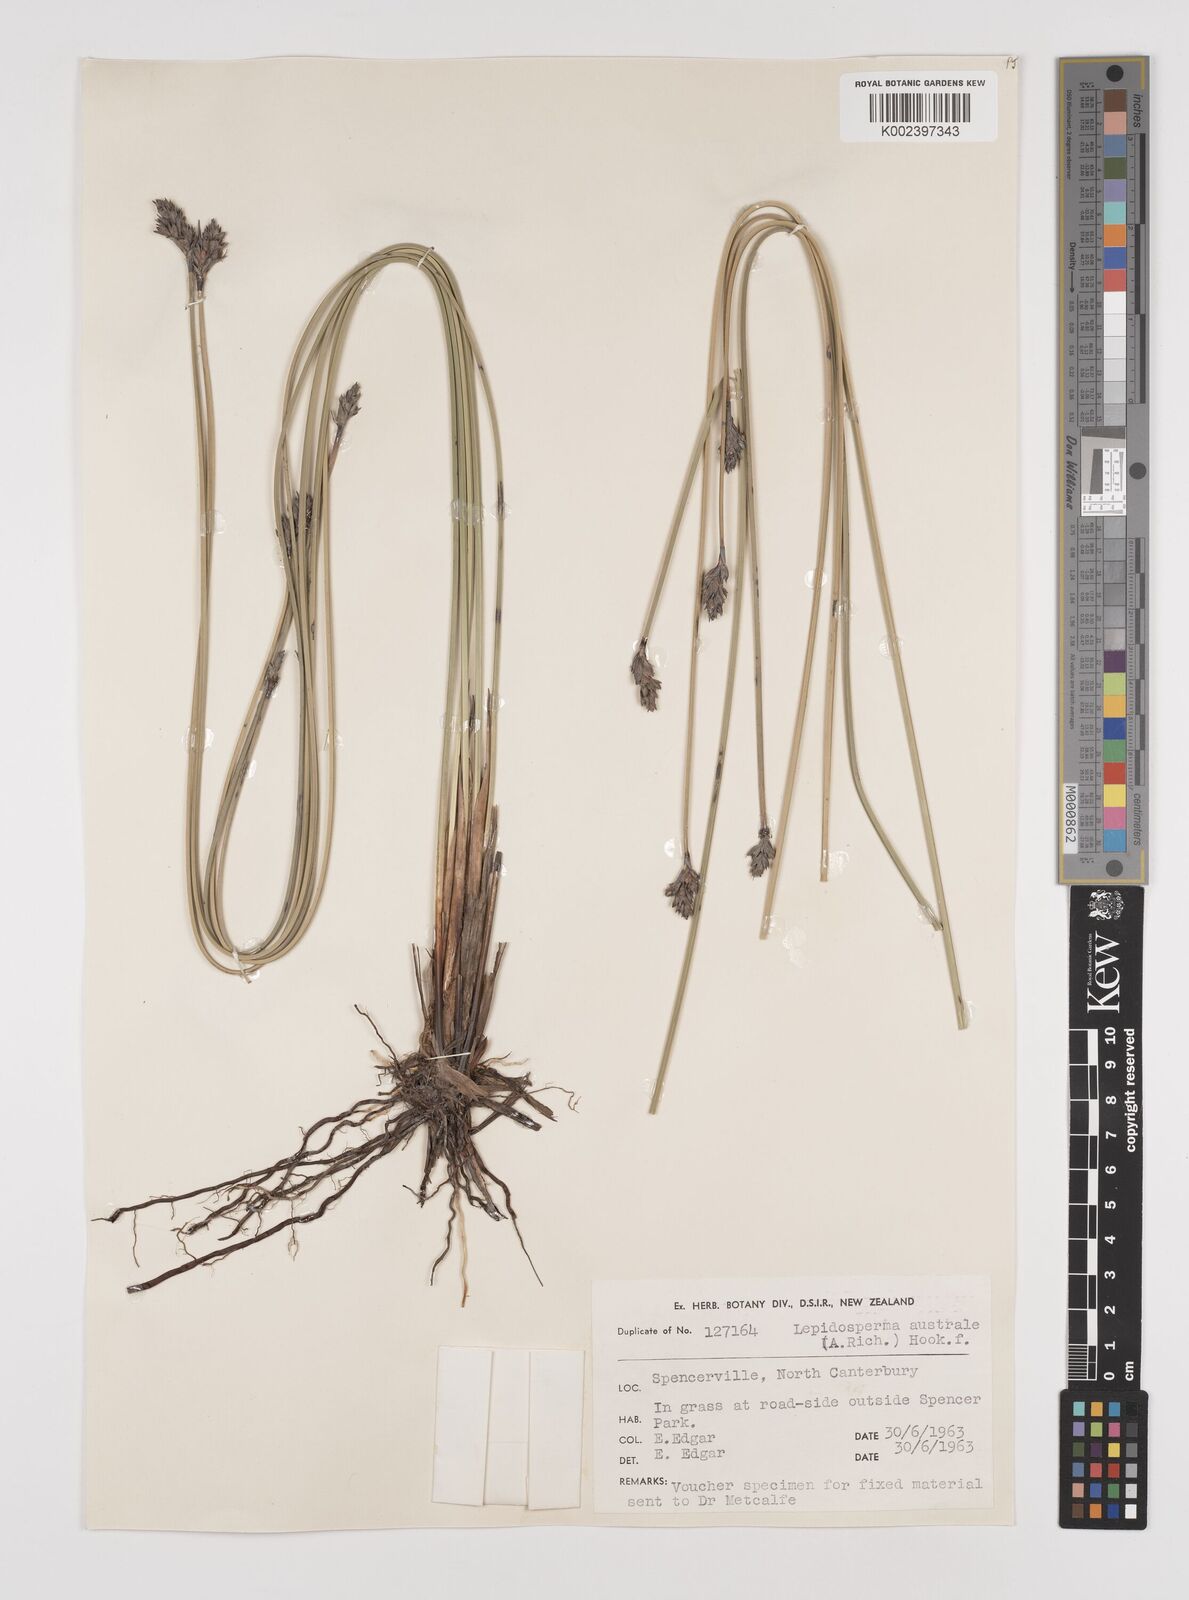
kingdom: Plantae
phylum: Tracheophyta
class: Liliopsida
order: Poales
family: Cyperaceae
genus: Lepidosperma
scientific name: Lepidosperma australe
